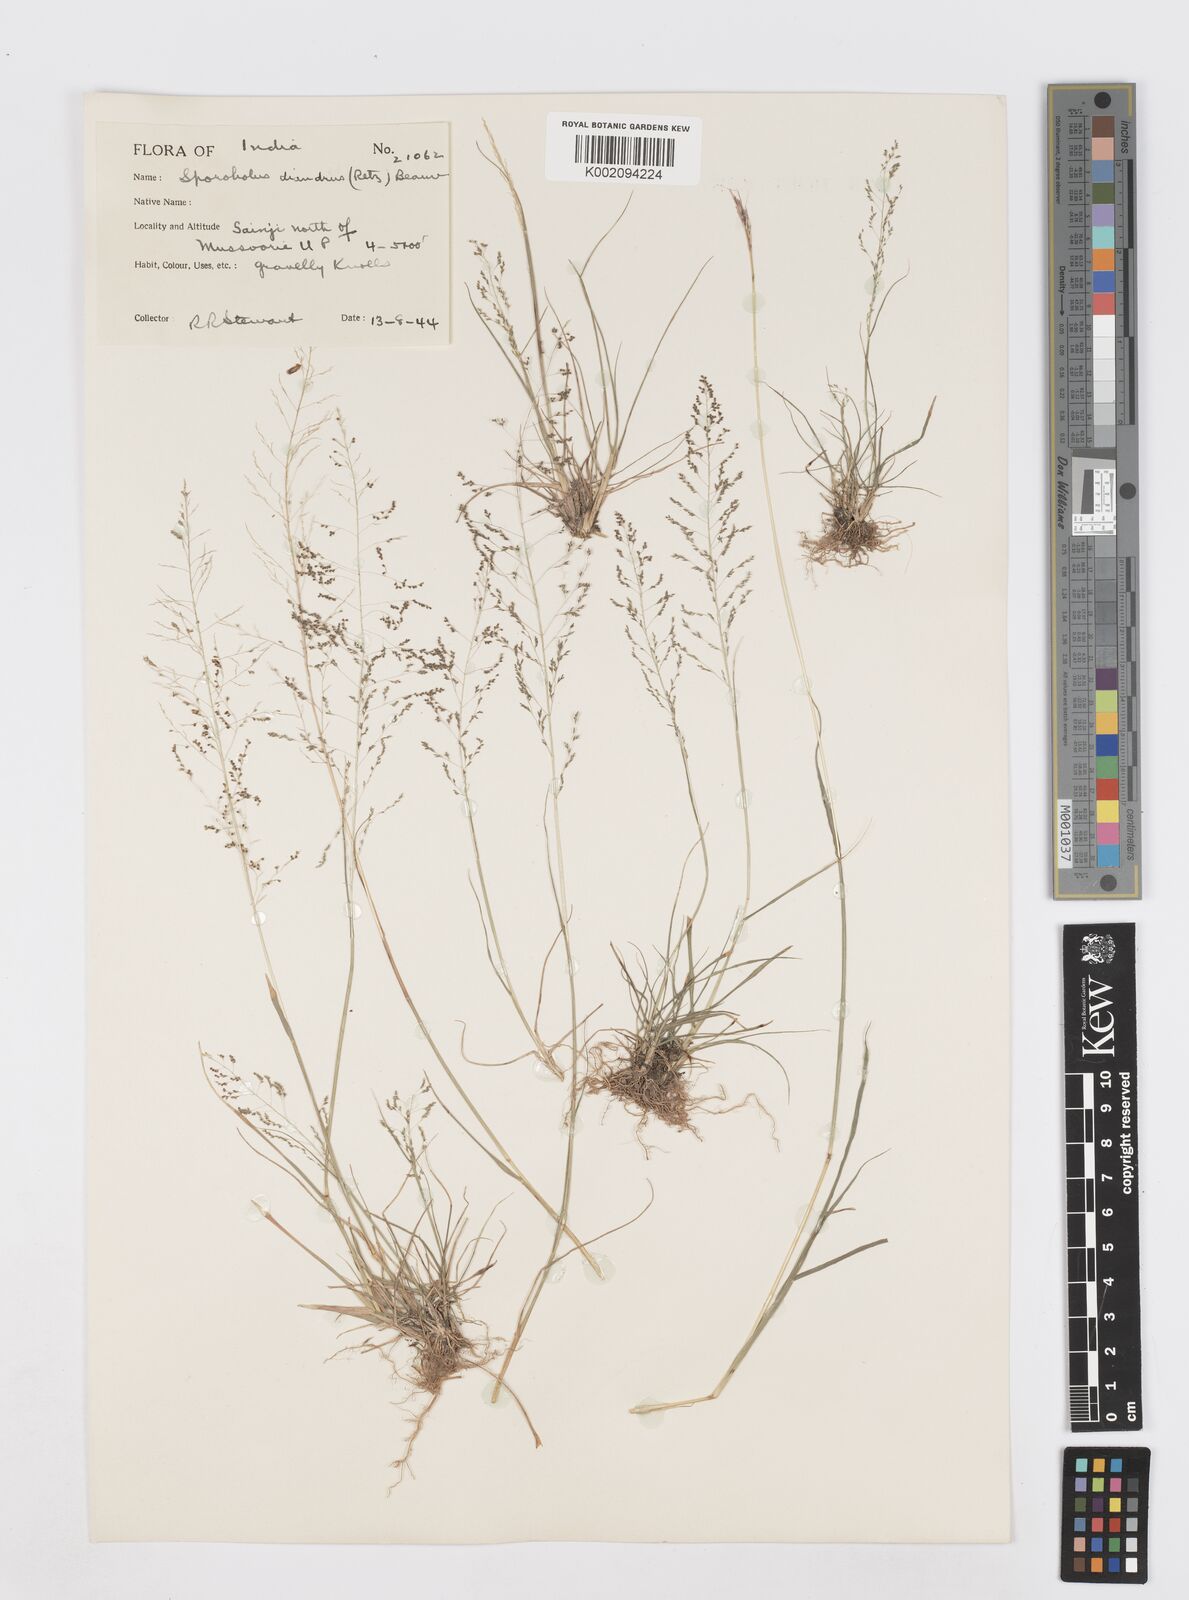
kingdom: Plantae
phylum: Tracheophyta
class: Liliopsida
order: Poales
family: Poaceae
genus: Sporobolus
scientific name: Sporobolus diandrus
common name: Tussock dropseed
